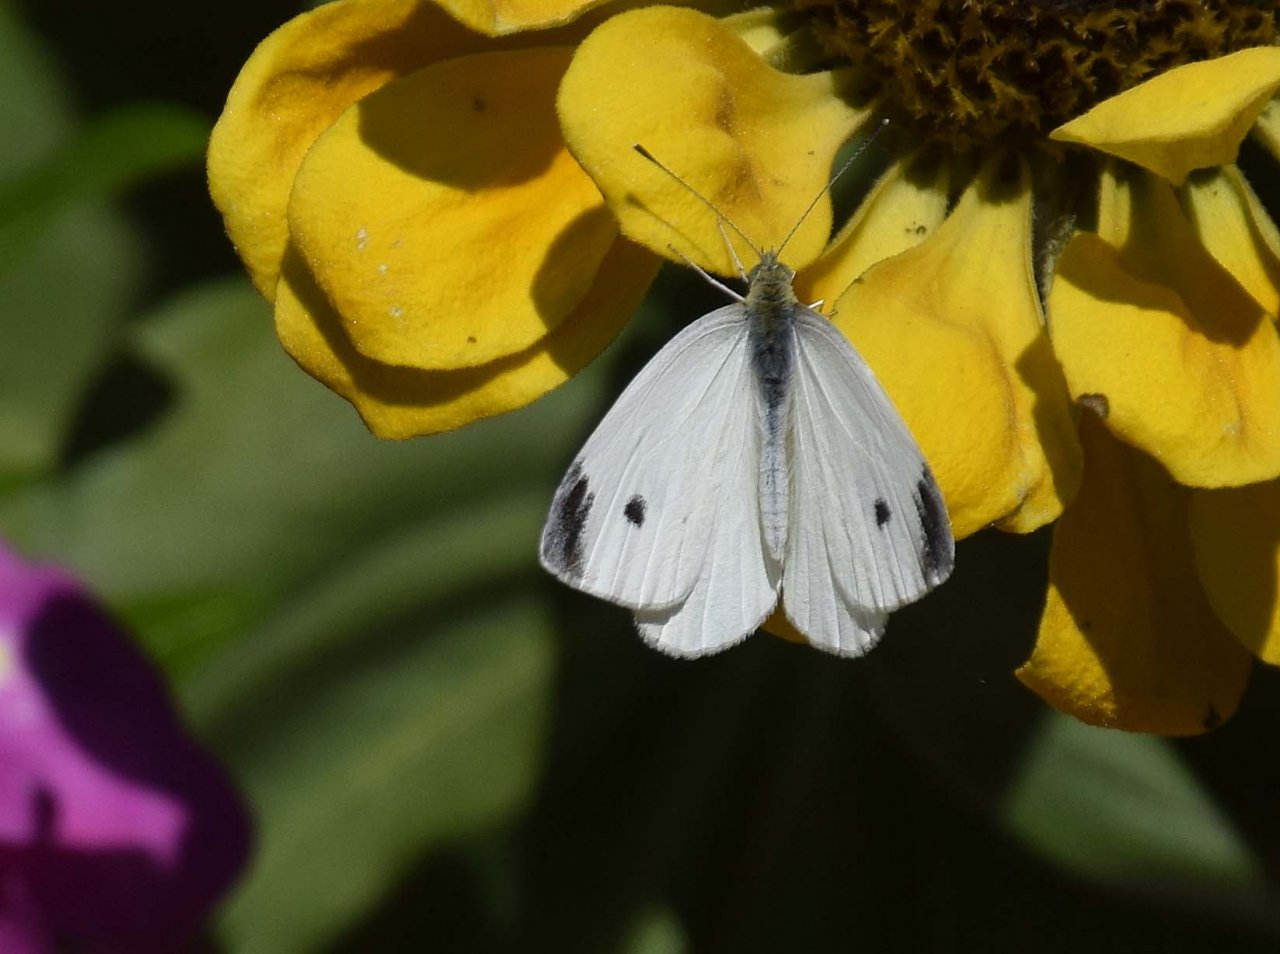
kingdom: Animalia
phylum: Arthropoda
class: Insecta
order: Lepidoptera
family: Pieridae
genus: Pieris
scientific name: Pieris rapae
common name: Cabbage White
